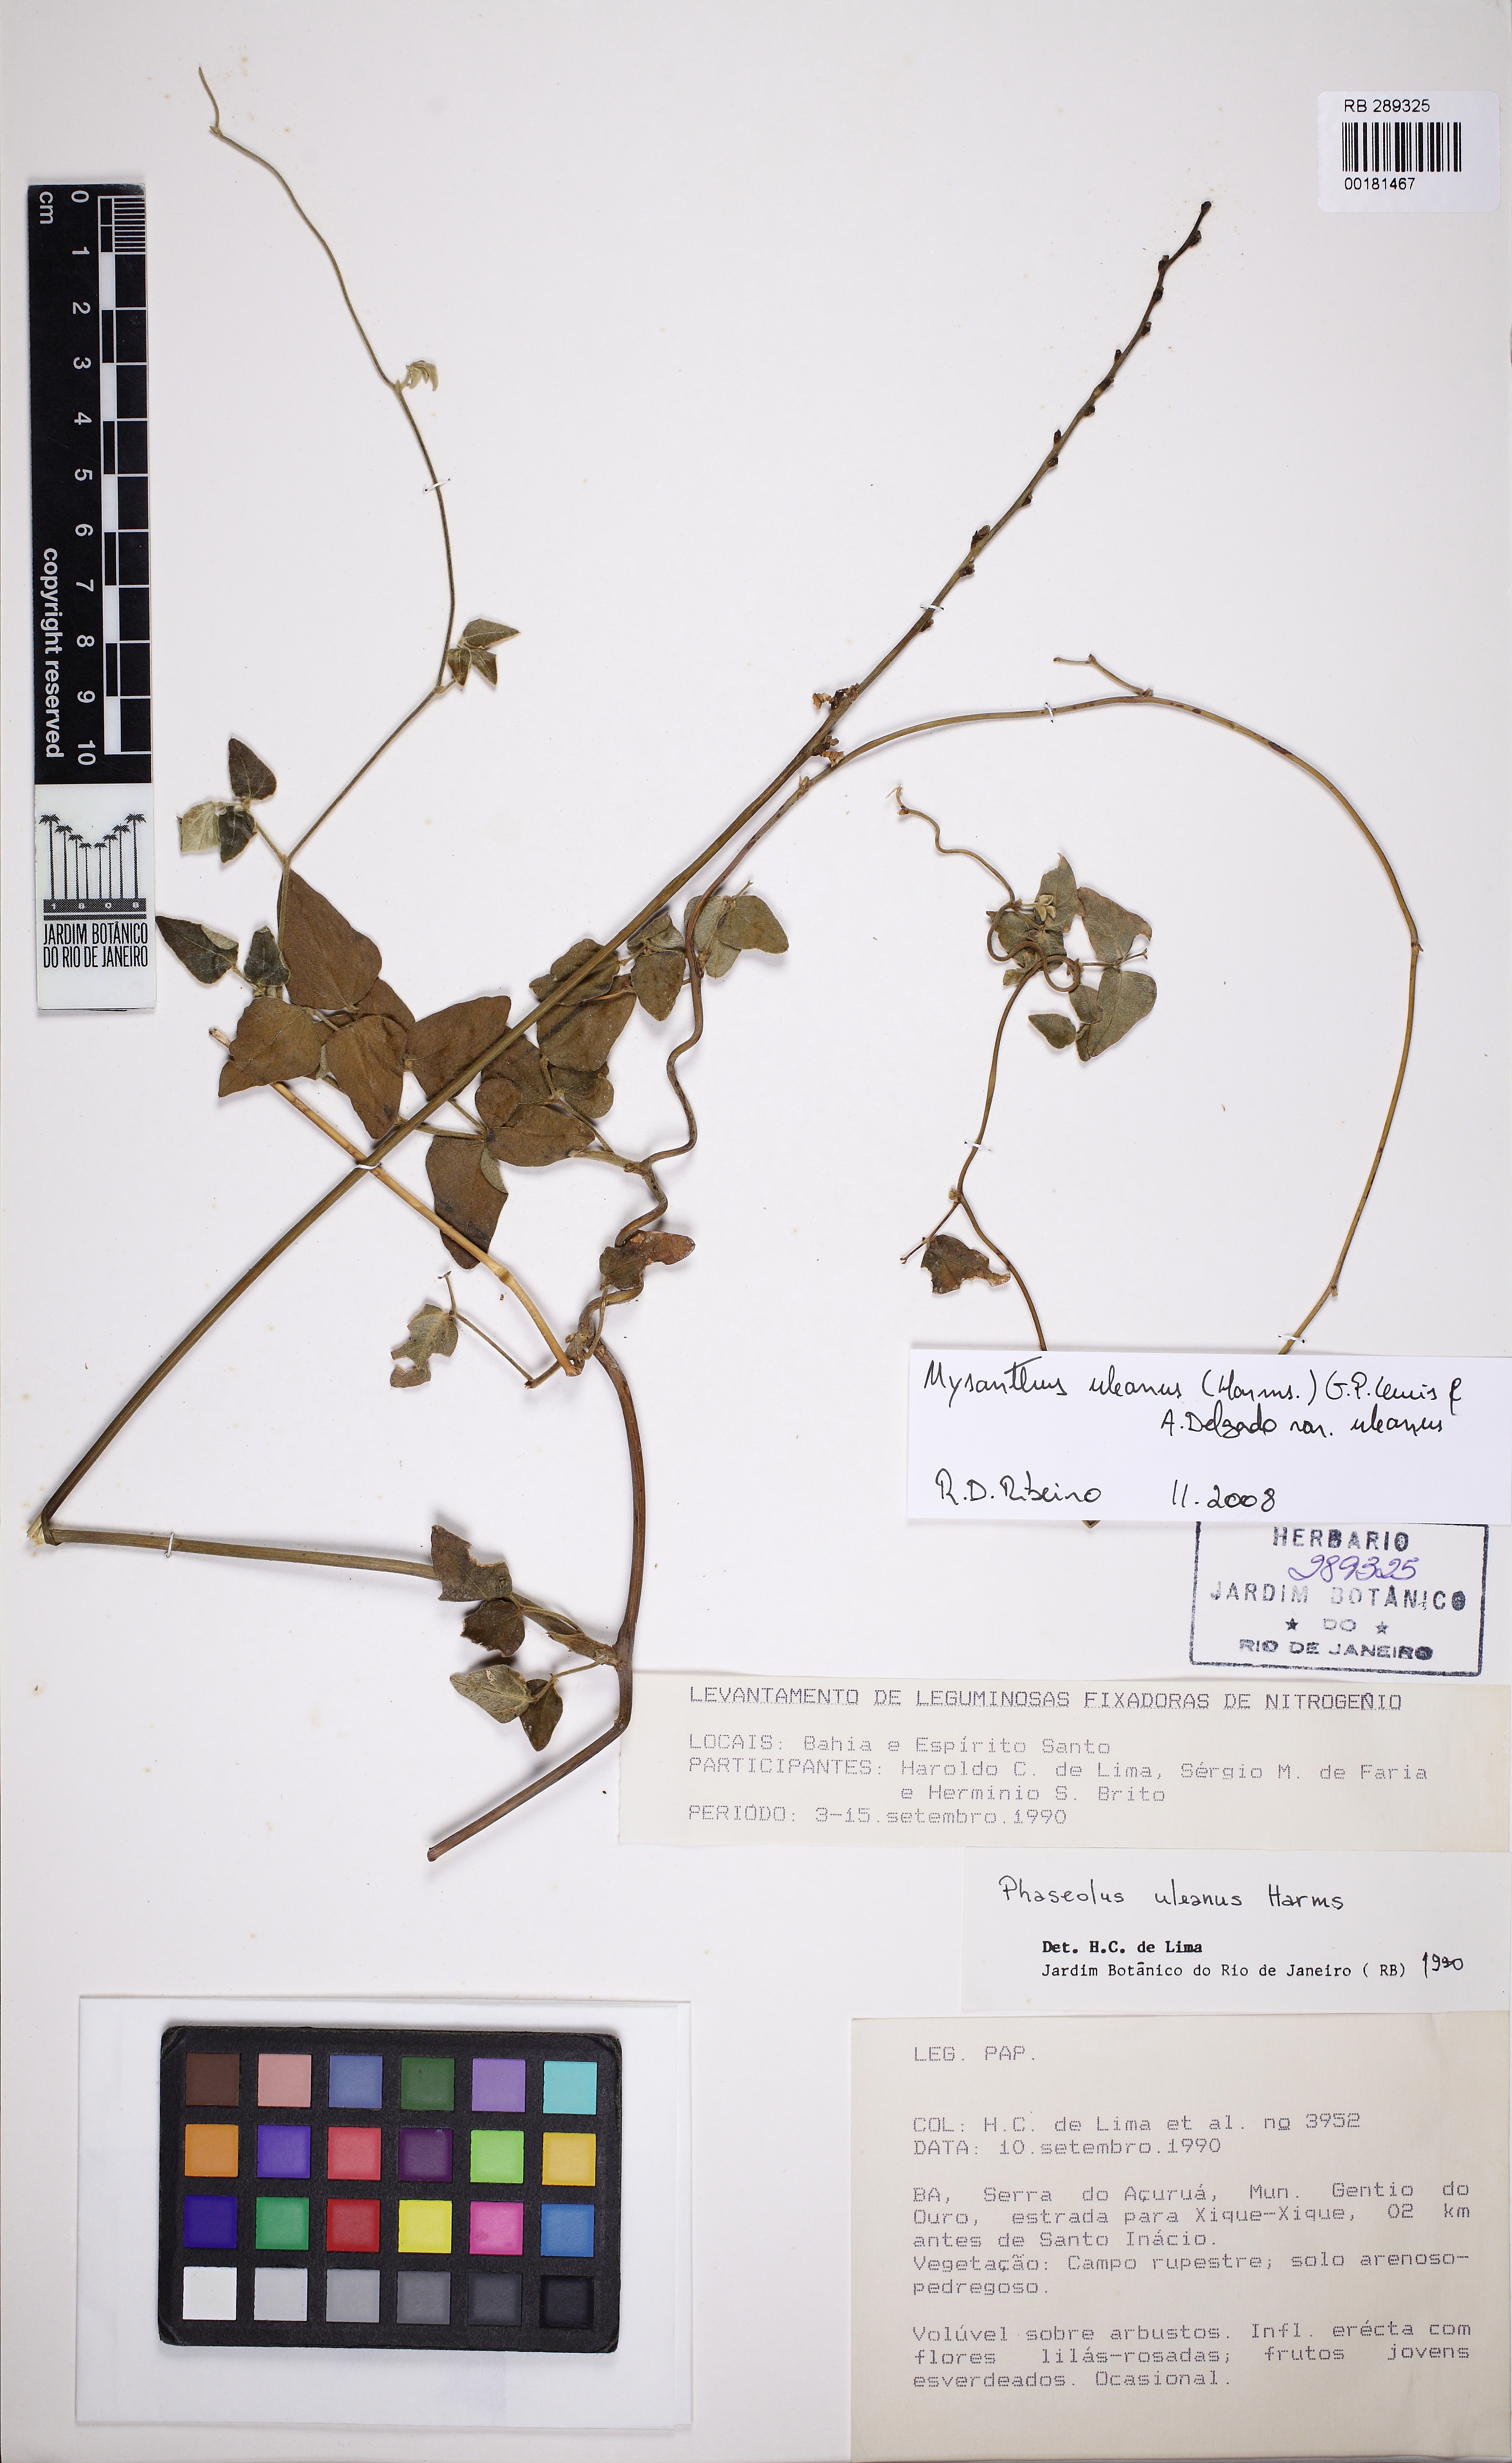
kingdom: Plantae
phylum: Tracheophyta
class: Magnoliopsida
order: Fabales
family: Fabaceae
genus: Mysanthus
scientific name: Mysanthus uleanus
